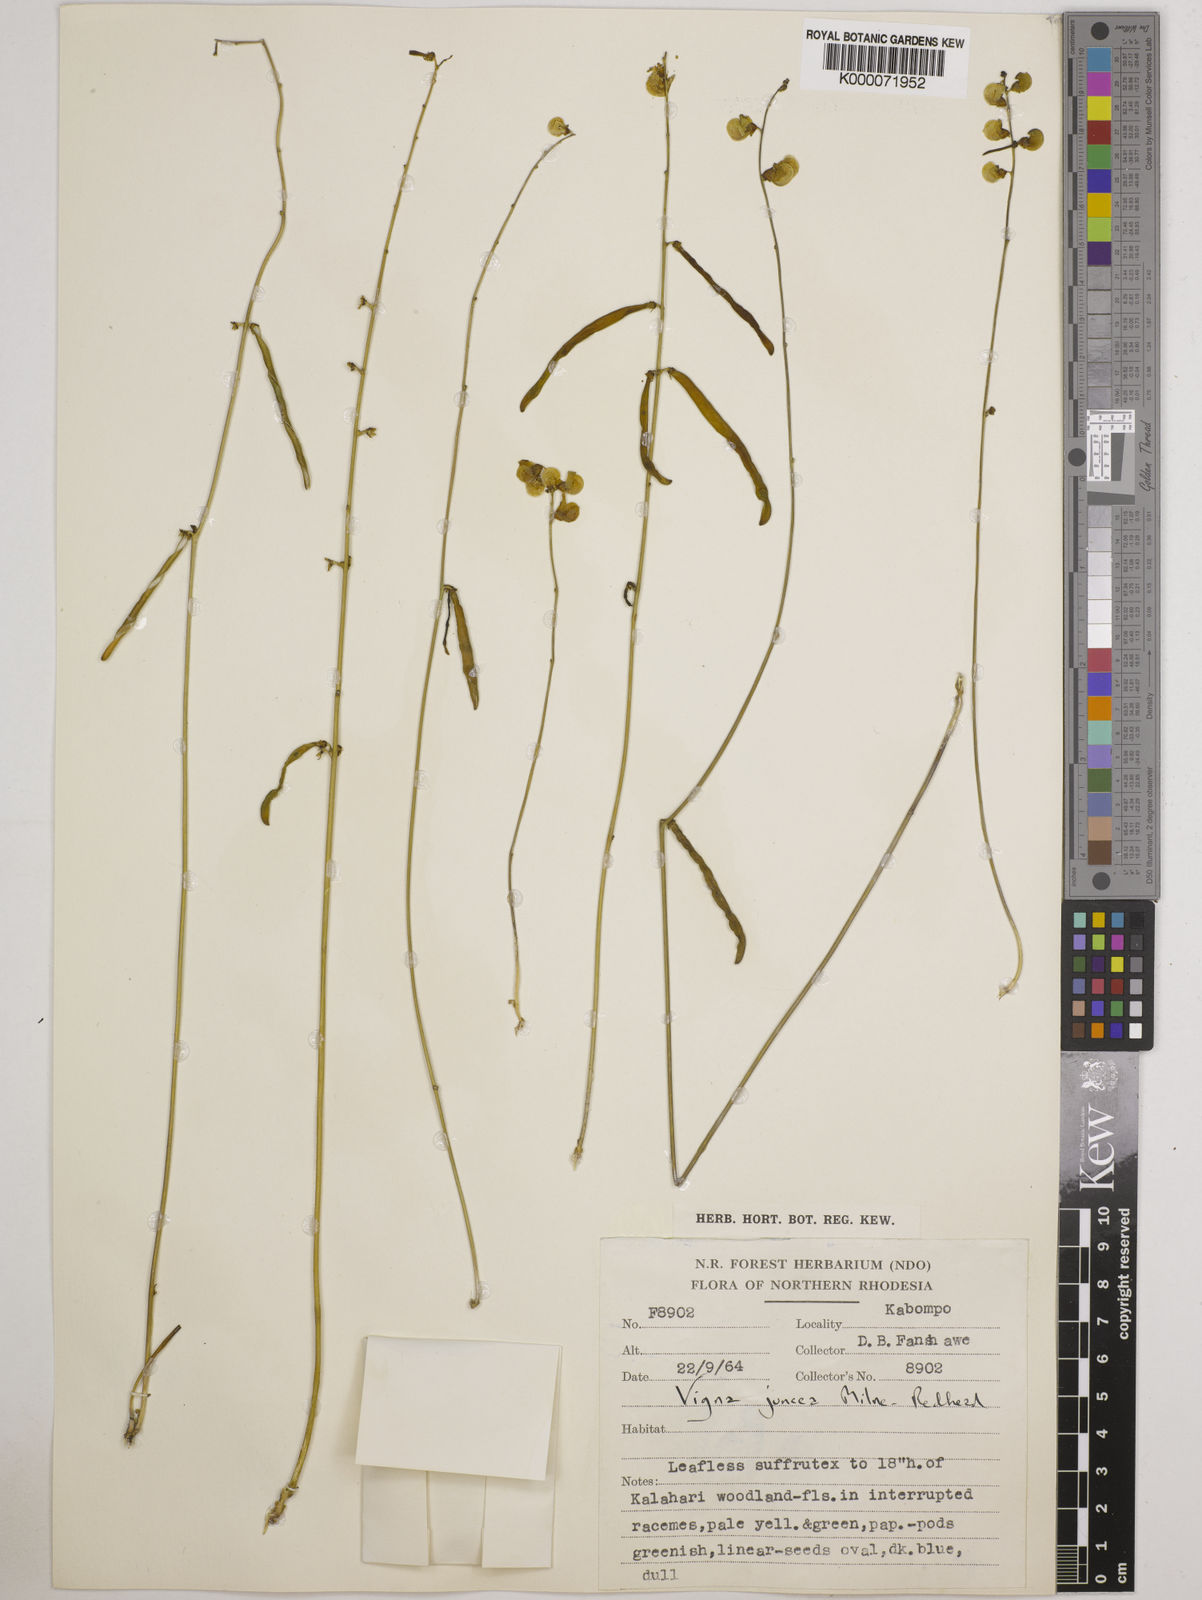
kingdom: Plantae
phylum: Tracheophyta
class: Magnoliopsida
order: Fabales
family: Fabaceae
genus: Vigna
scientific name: Vigna juncea
